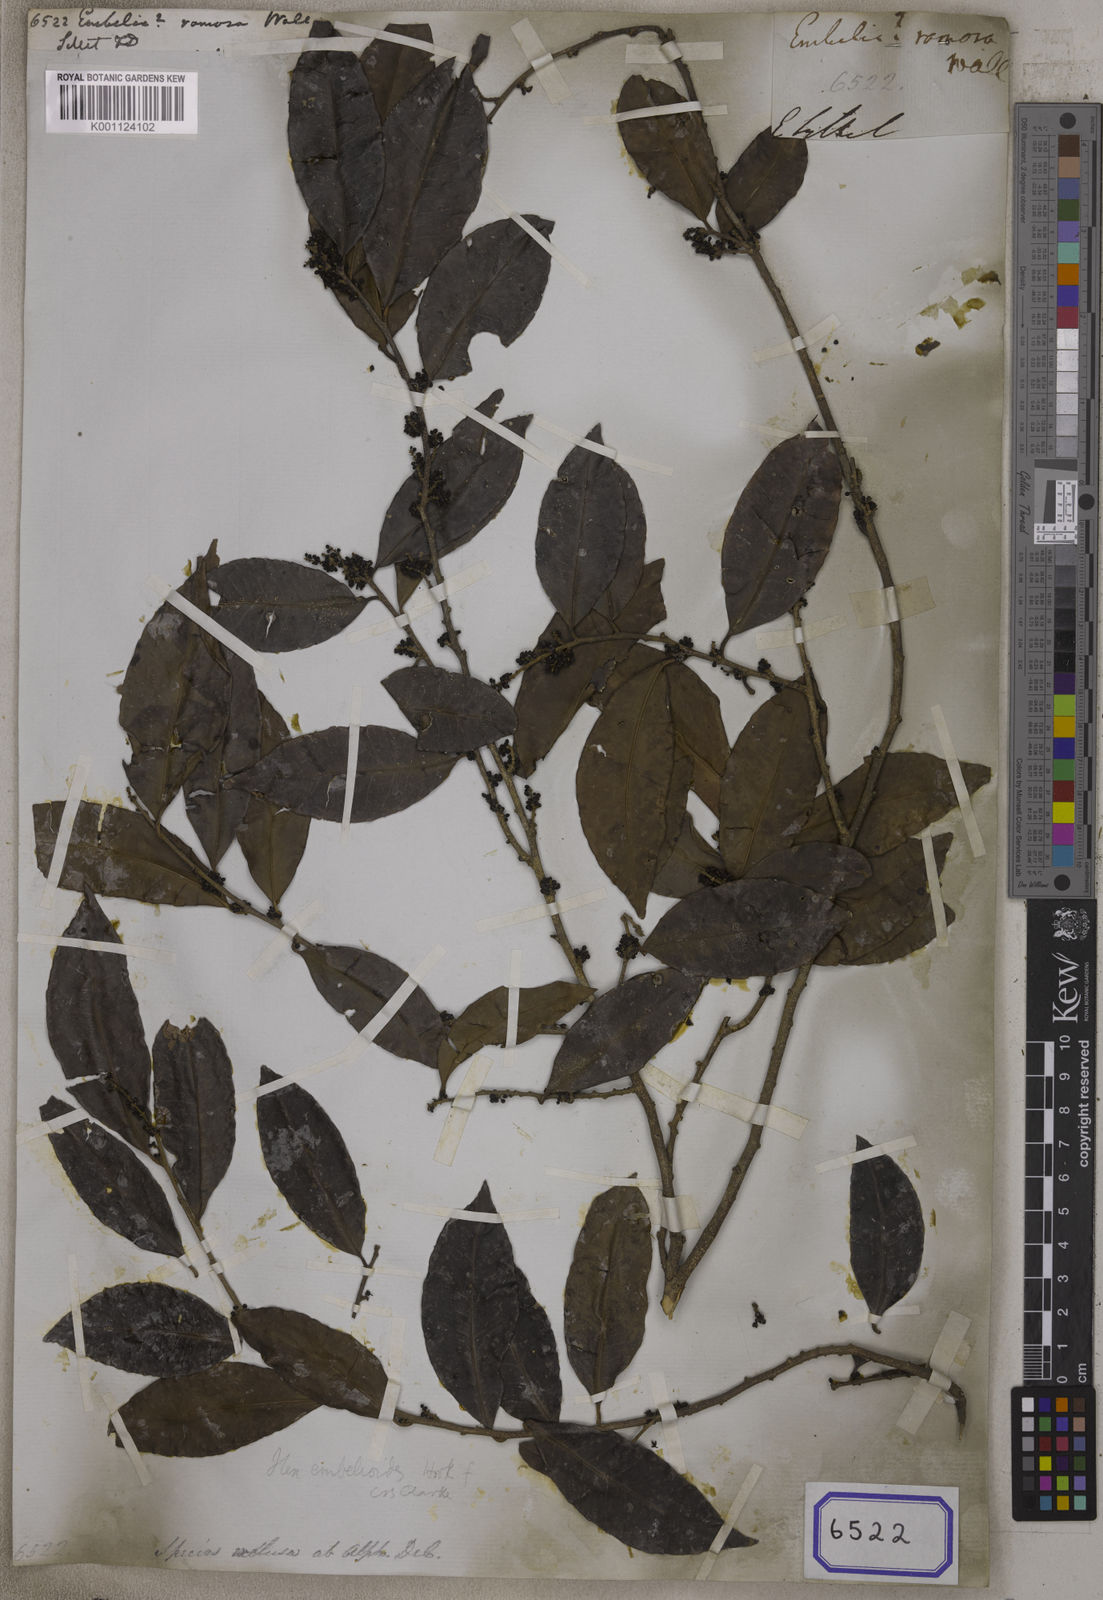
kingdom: Plantae
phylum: Tracheophyta
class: Magnoliopsida
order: Ericales
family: Primulaceae
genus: Embelia
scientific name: Embelia
